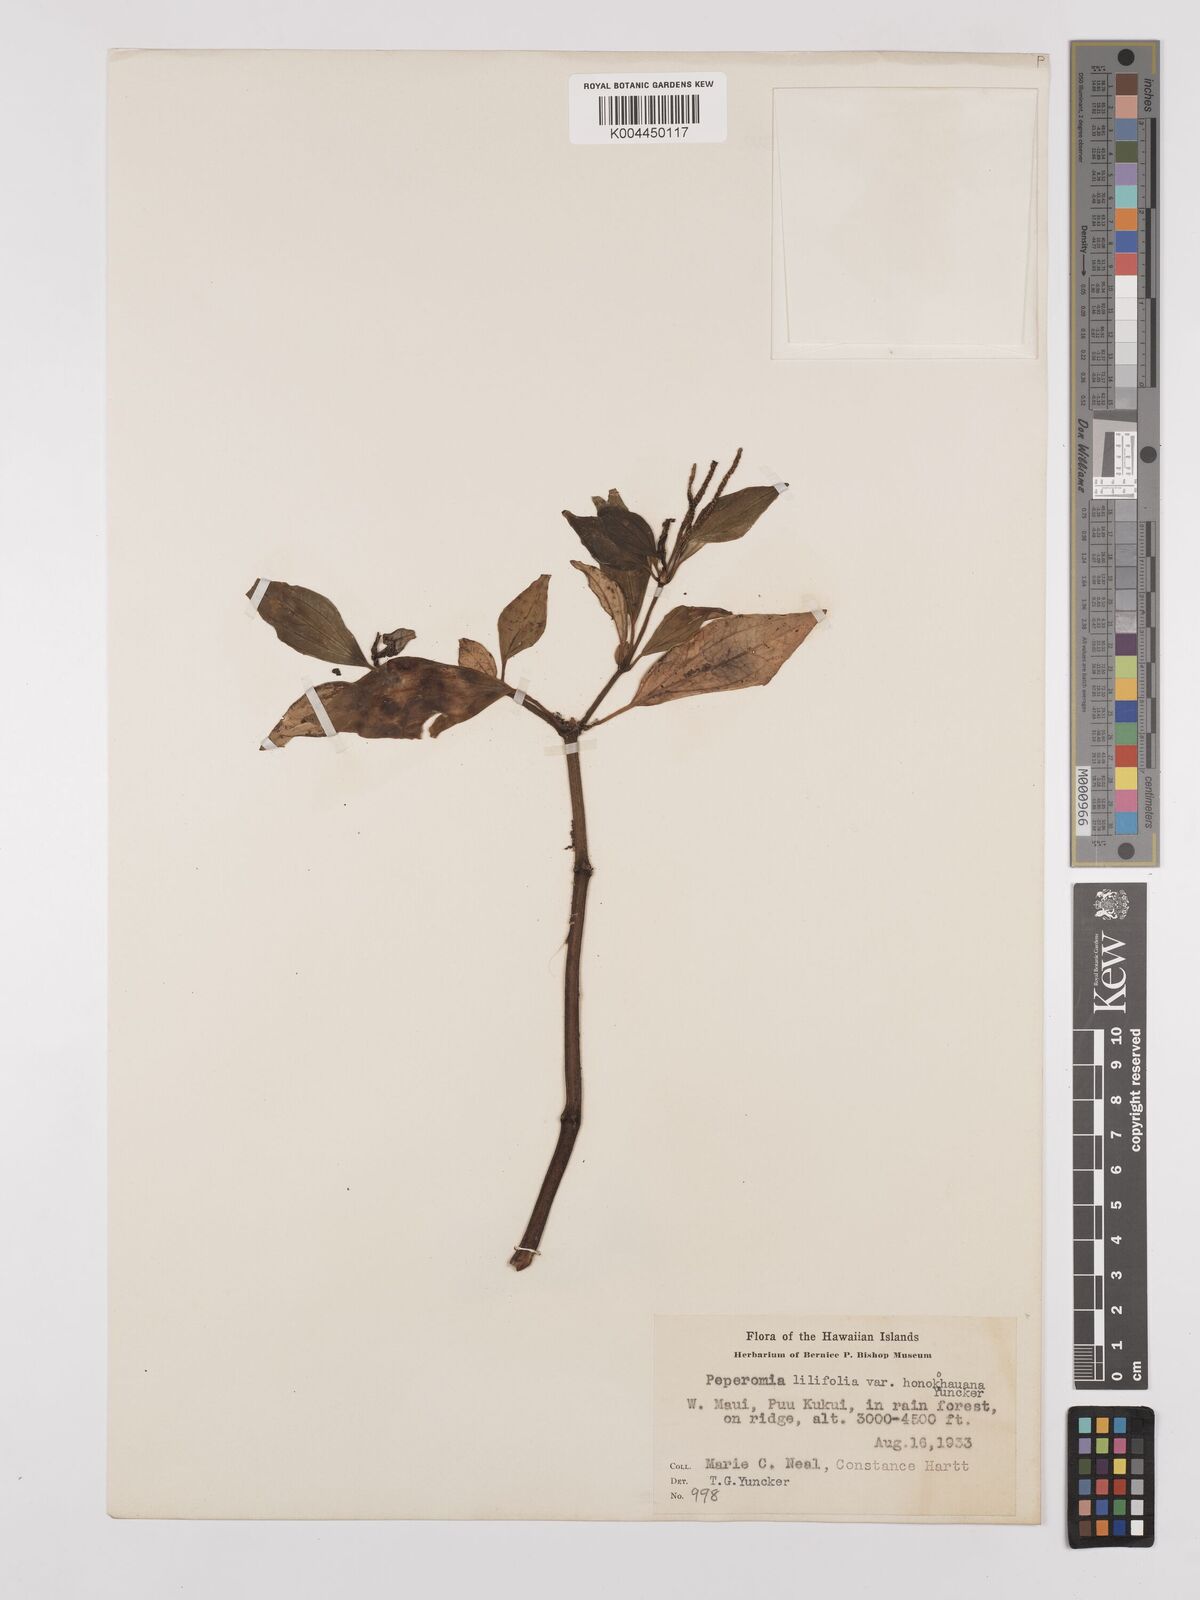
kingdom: Plantae
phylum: Tracheophyta
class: Magnoliopsida
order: Piperales
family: Piperaceae
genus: Peperomia
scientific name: Peperomia macraeana
